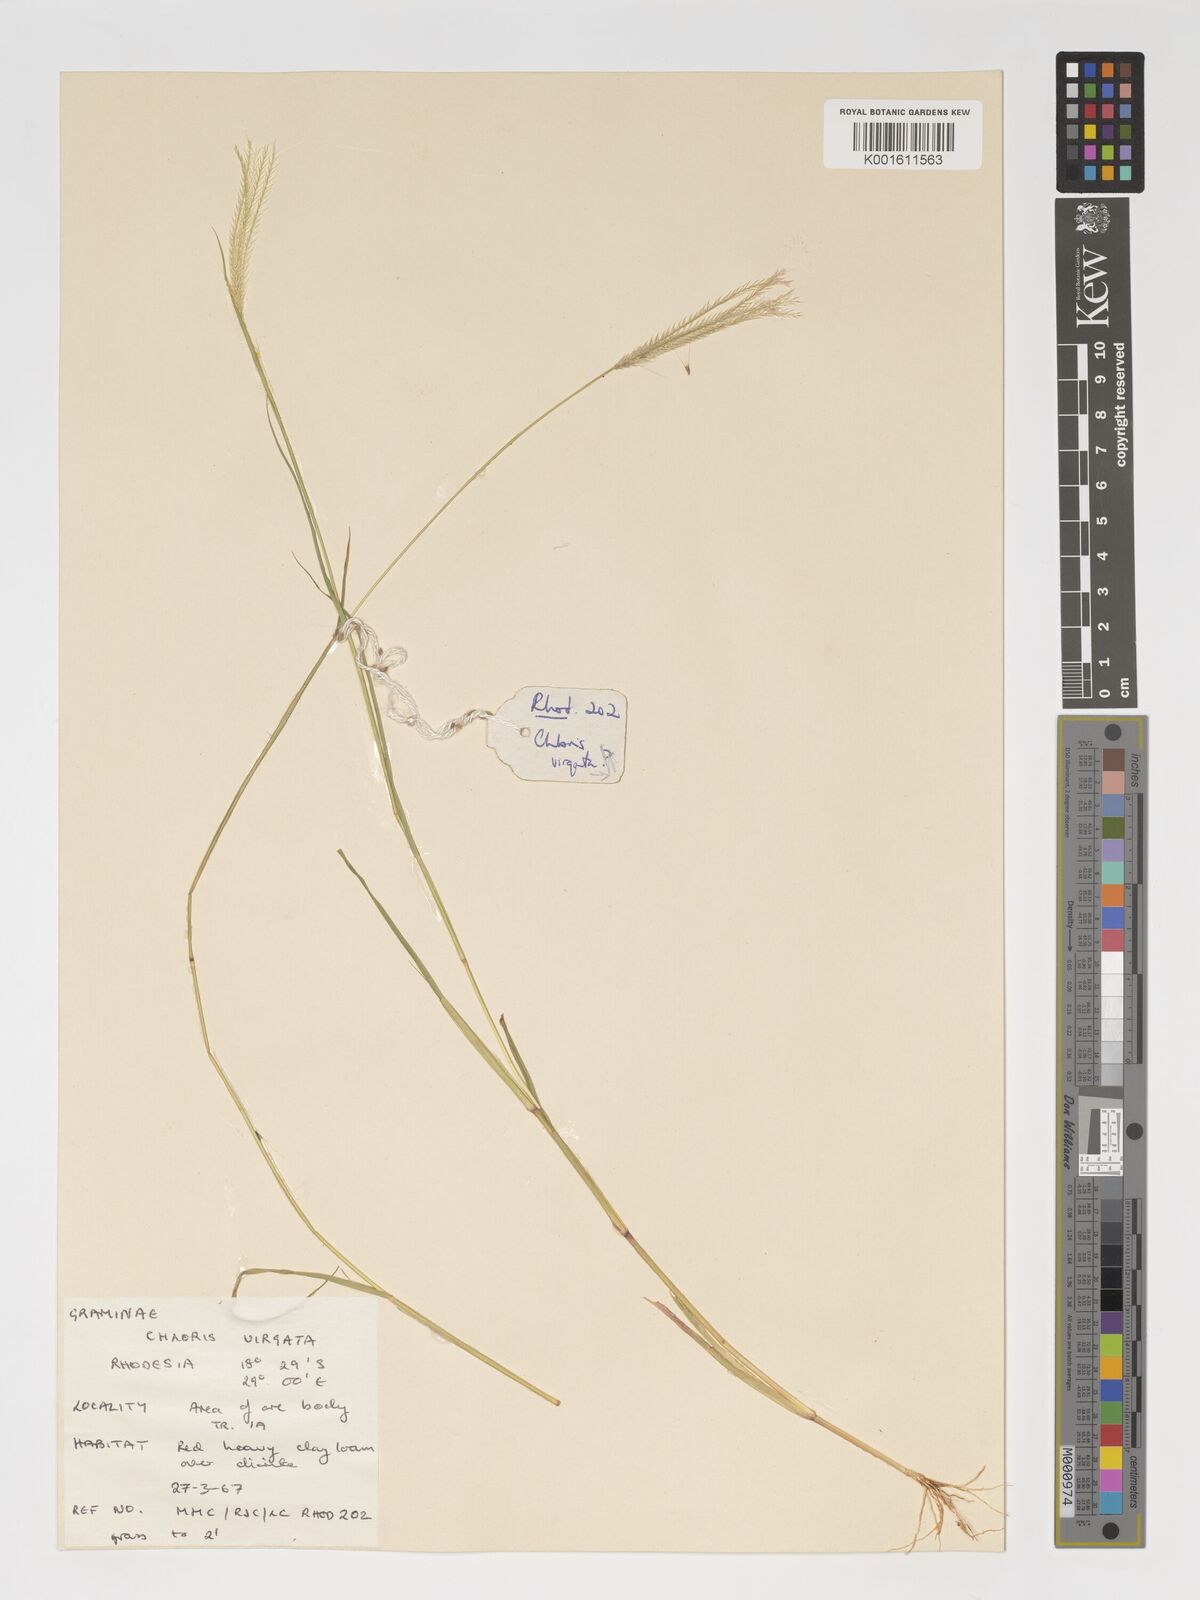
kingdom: Plantae
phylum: Tracheophyta
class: Liliopsida
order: Poales
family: Poaceae
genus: Chloris
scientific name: Chloris virgata
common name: Feathery rhodes-grass
